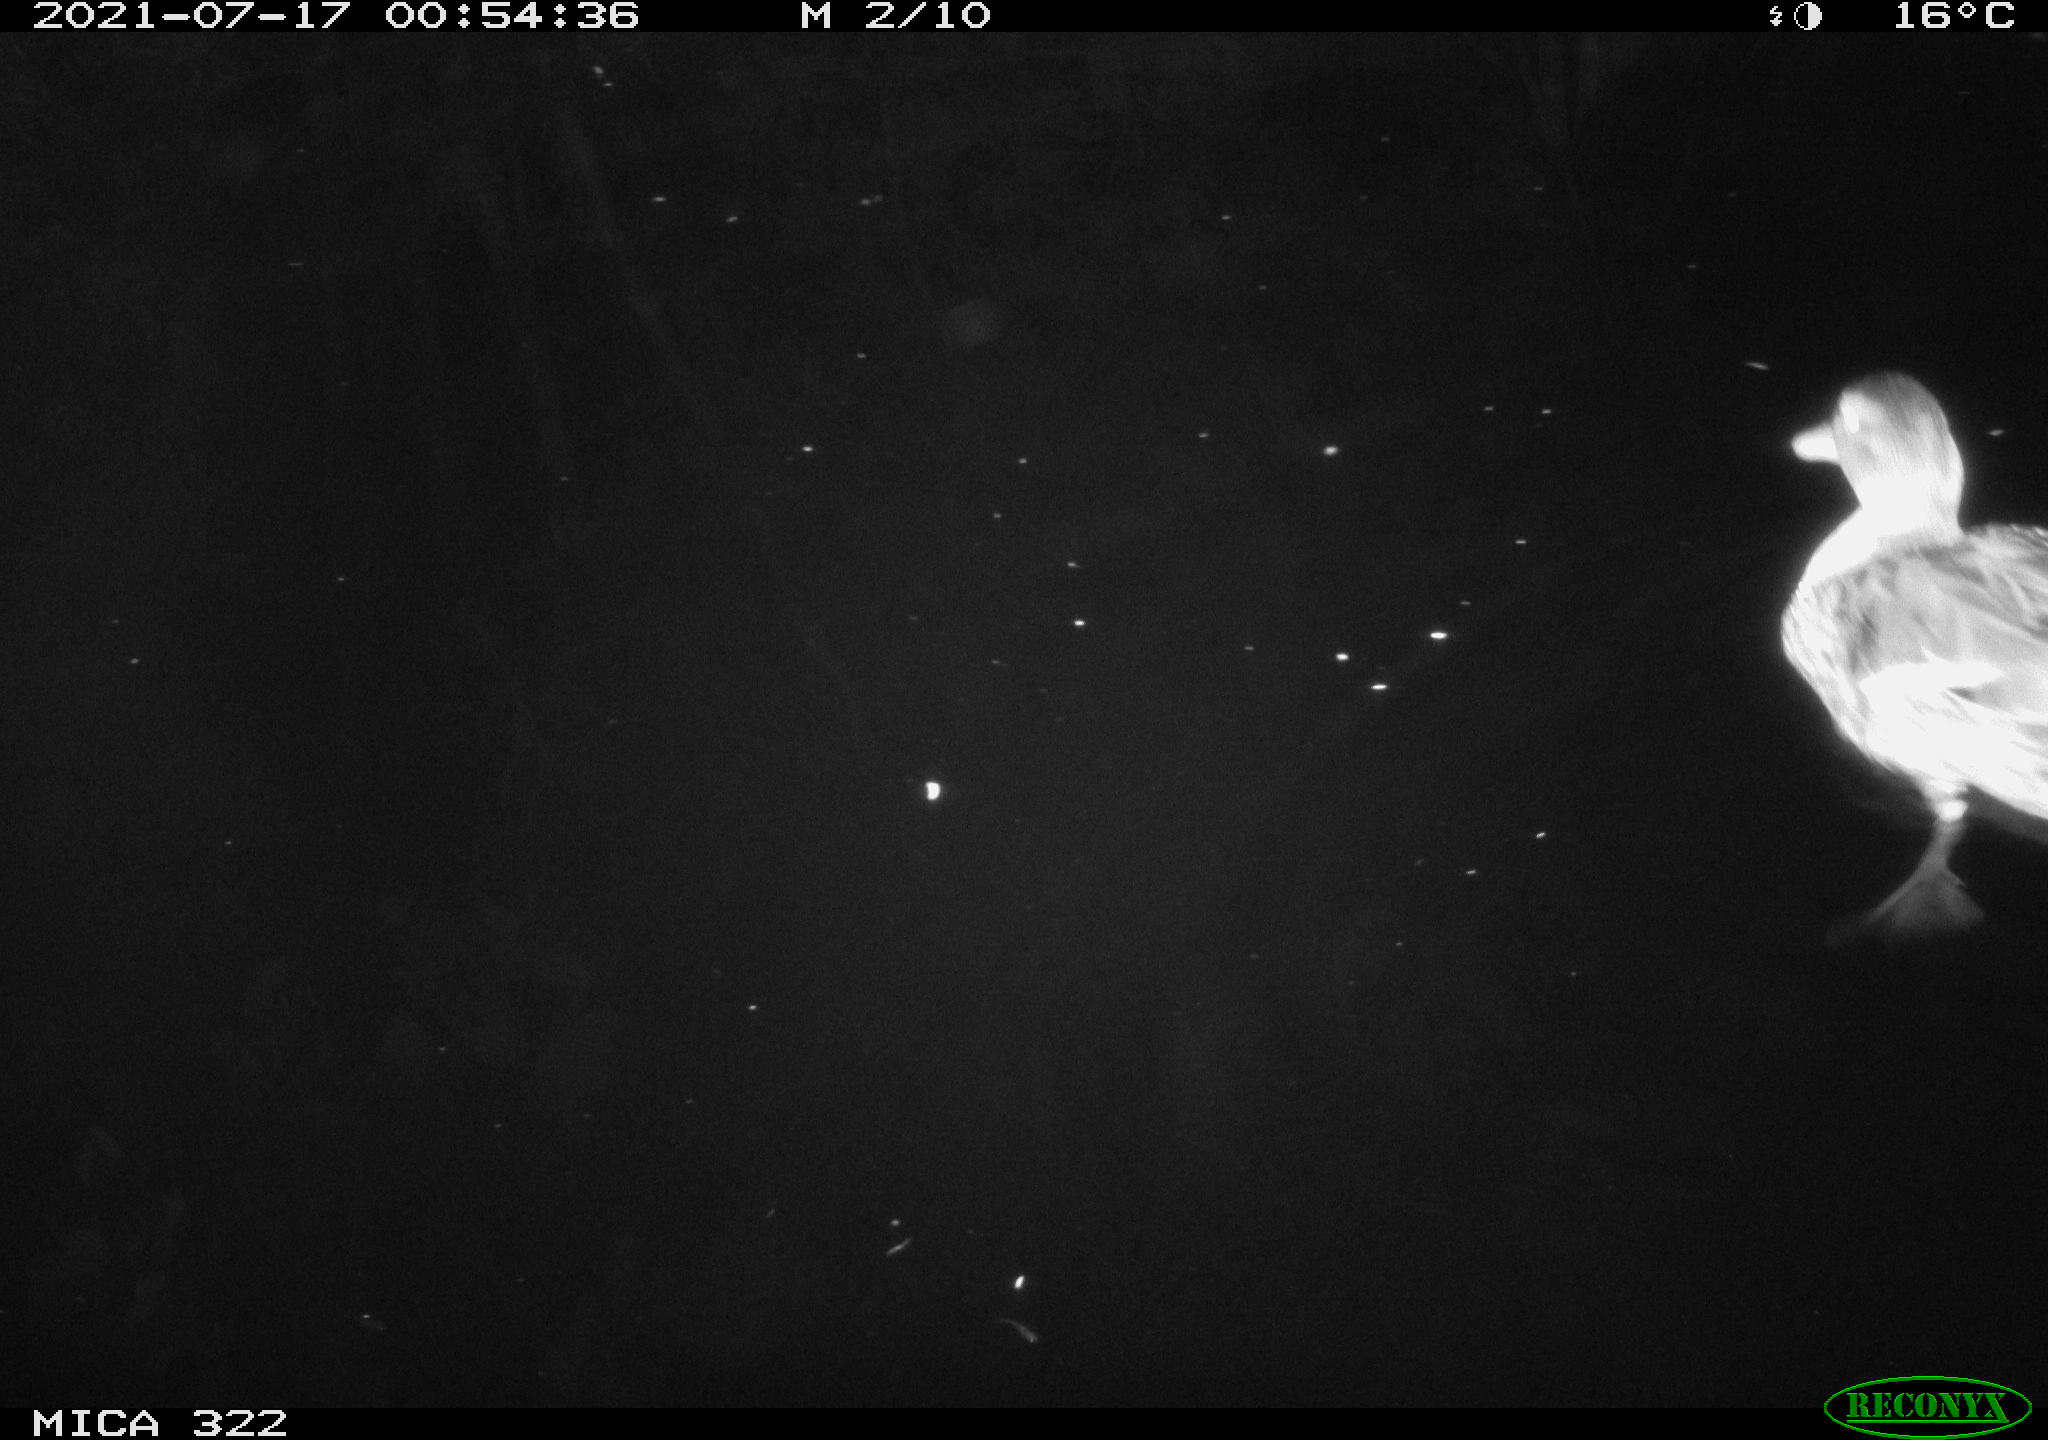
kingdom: Animalia
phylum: Chordata
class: Aves
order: Anseriformes
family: Anatidae
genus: Anas
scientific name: Anas platyrhynchos
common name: Mallard
